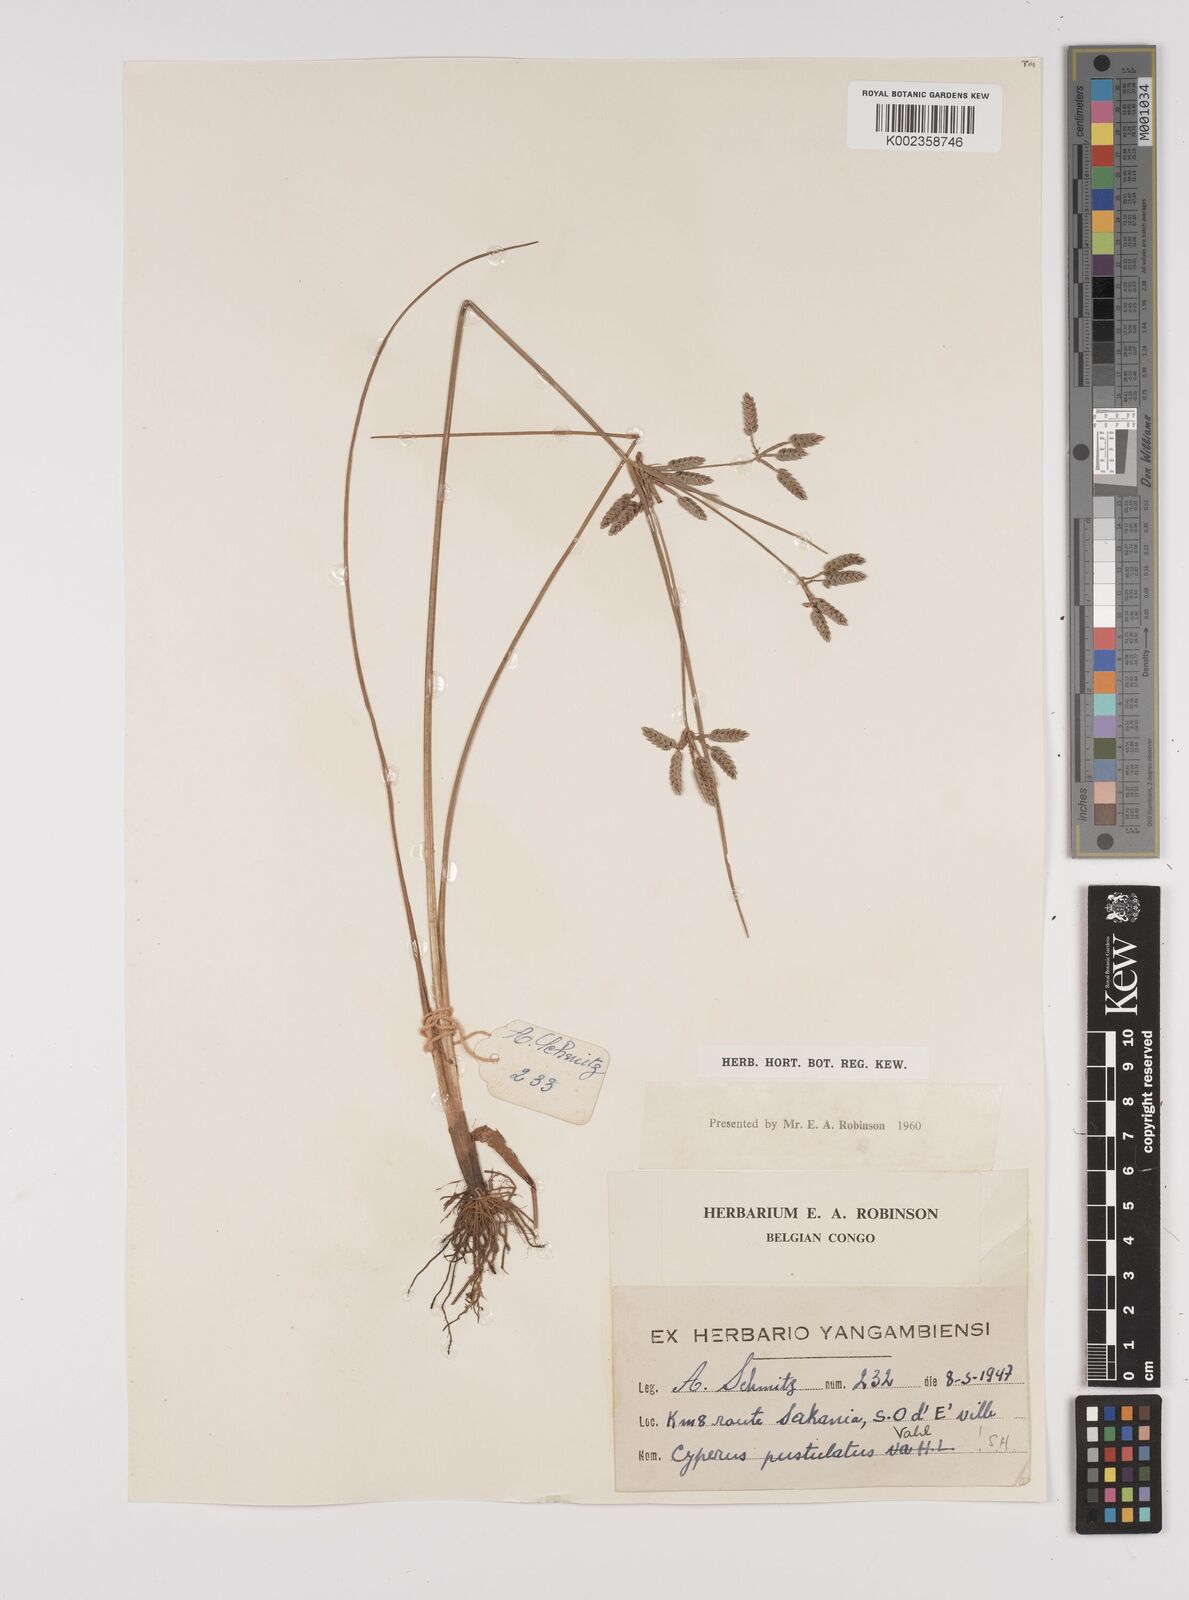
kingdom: Plantae
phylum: Tracheophyta
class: Liliopsida
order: Poales
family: Cyperaceae
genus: Cyperus
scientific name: Cyperus pustulatus
